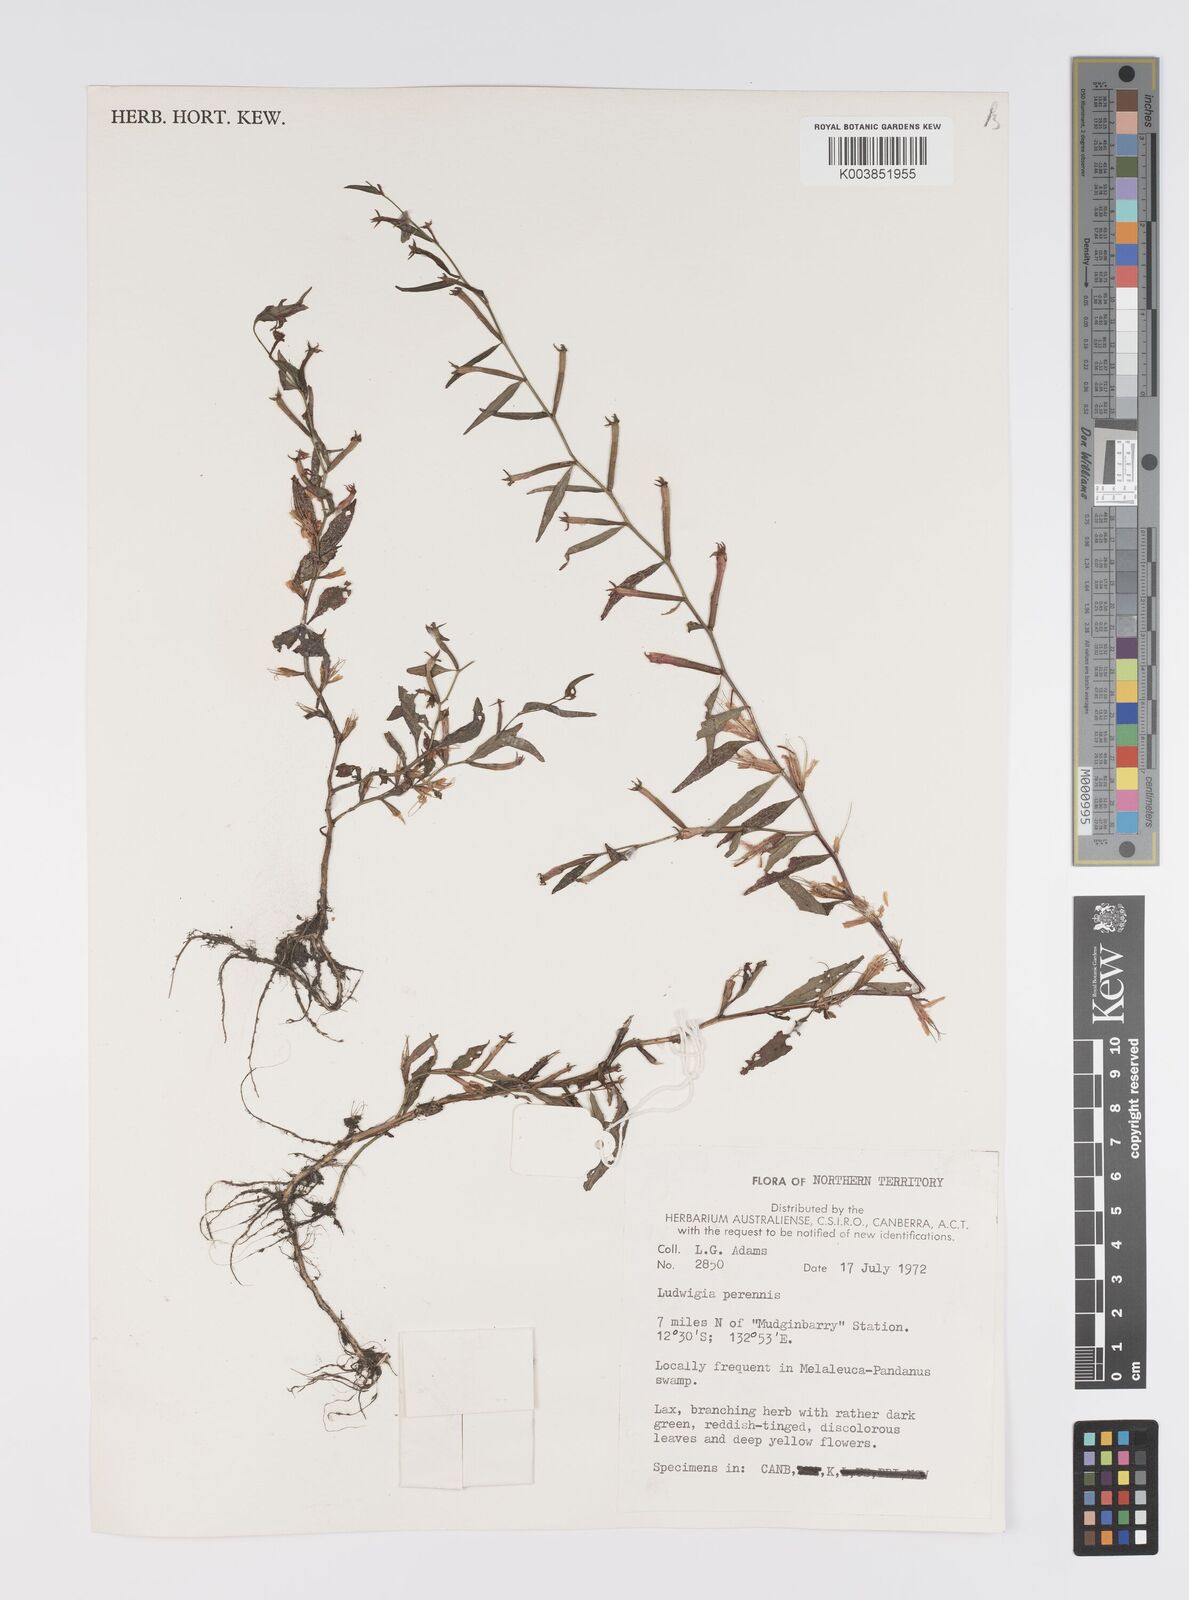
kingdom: Plantae
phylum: Tracheophyta
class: Magnoliopsida
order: Myrtales
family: Onagraceae
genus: Ludwigia
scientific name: Ludwigia perennis
